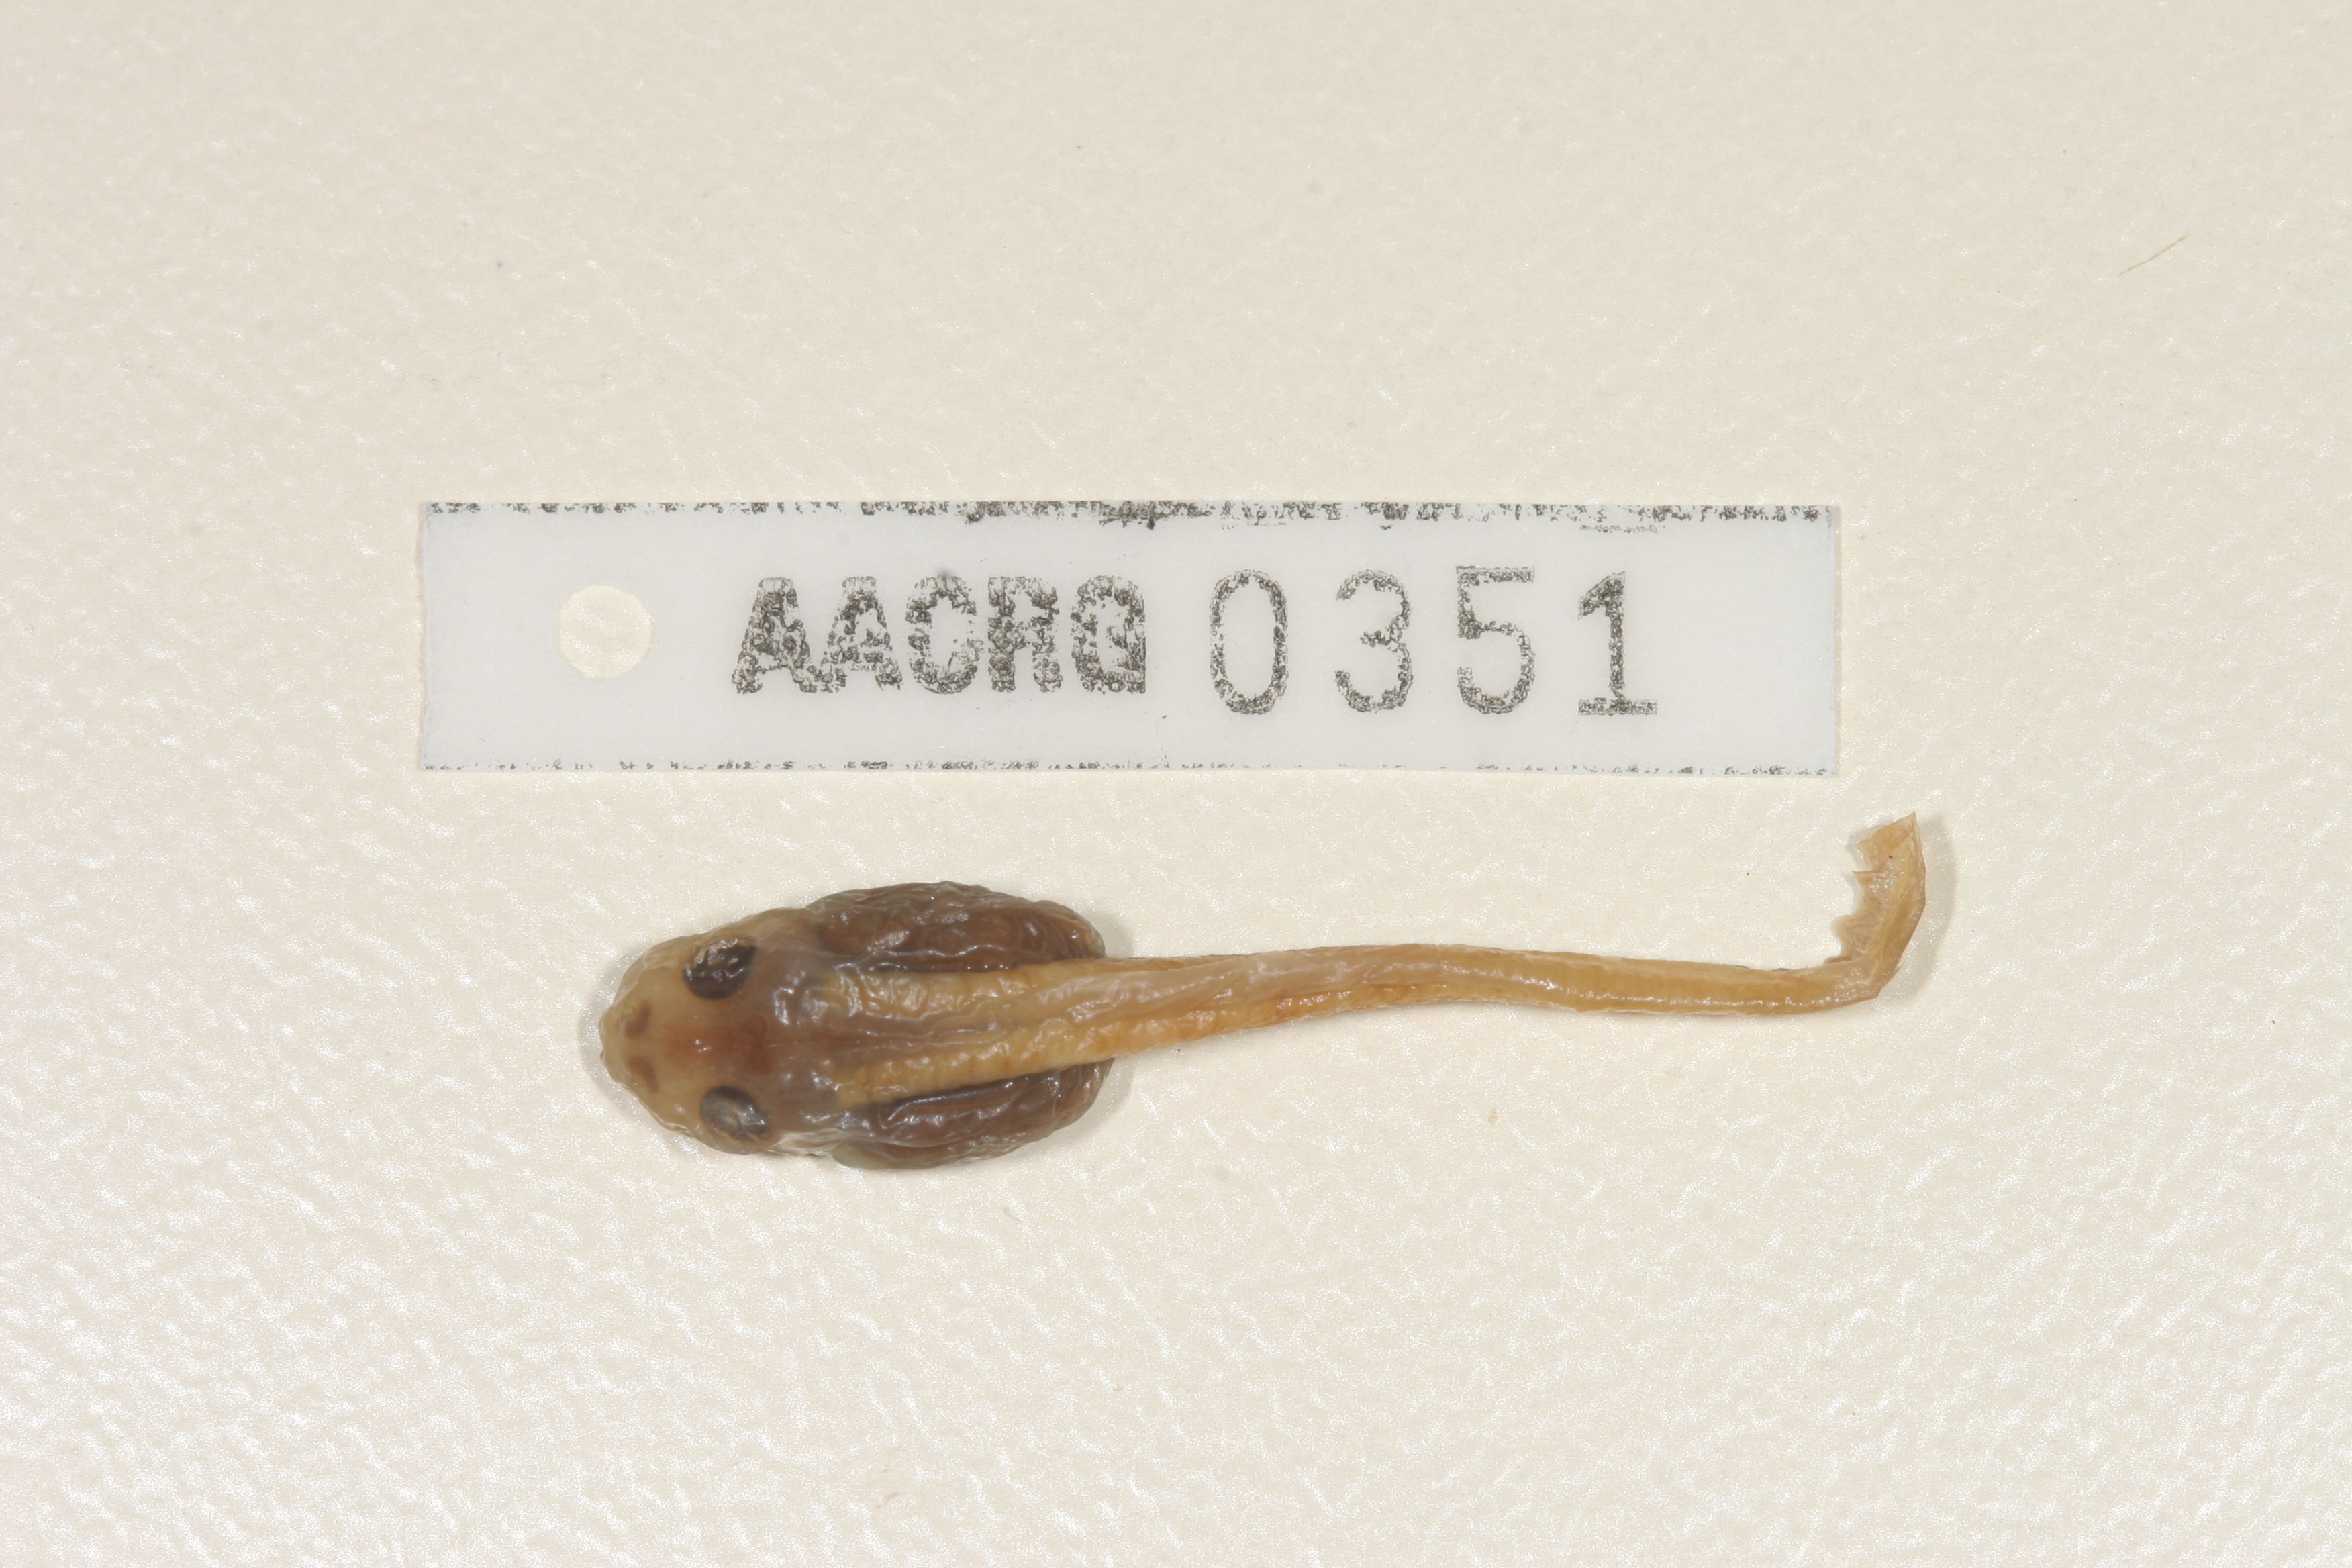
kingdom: Animalia
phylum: Chordata
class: Amphibia
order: Anura
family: Pyxicephalidae
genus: Tomopterna
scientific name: Tomopterna cryptotis
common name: Catequero bullfrog
